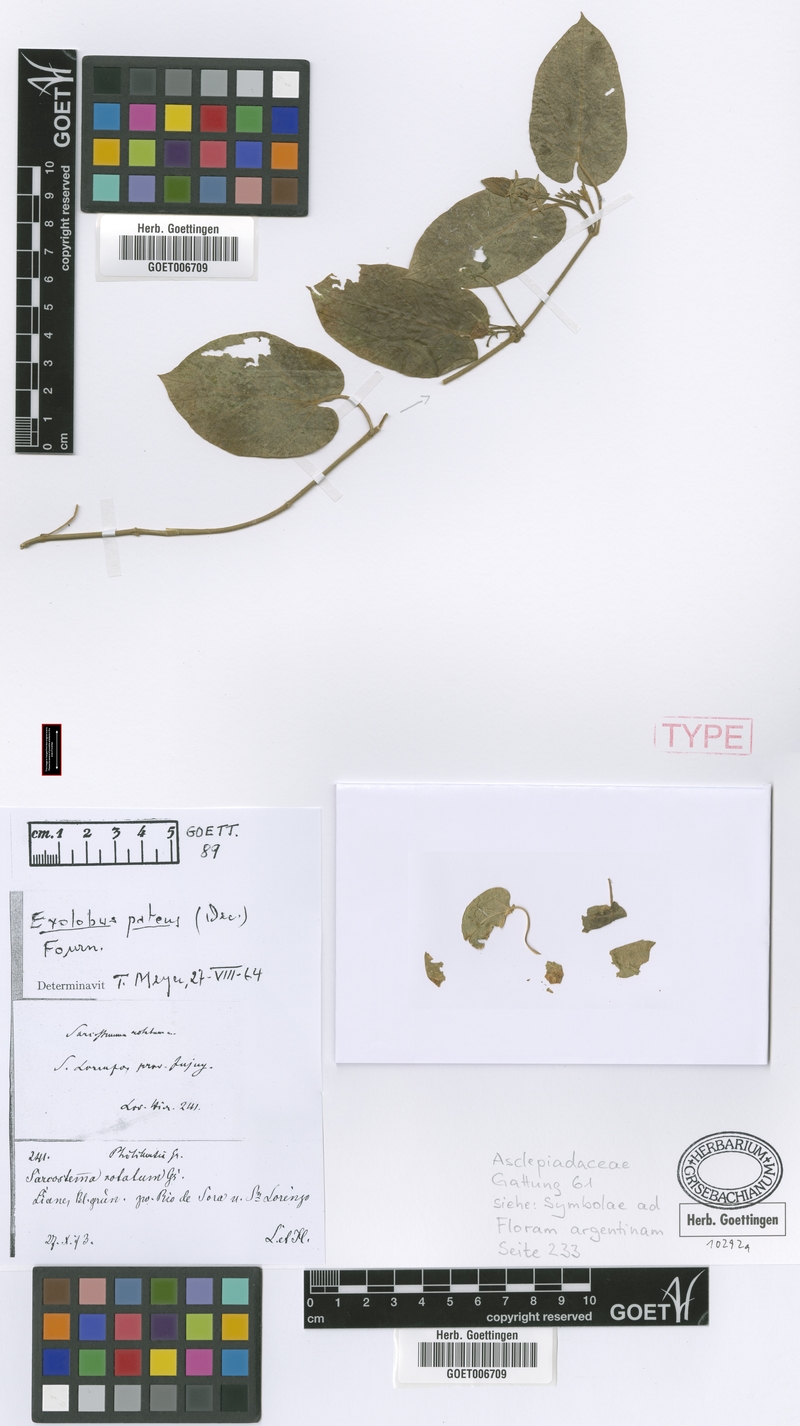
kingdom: Plantae
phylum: Tracheophyta
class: Magnoliopsida
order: Gentianales
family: Apocynaceae
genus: Gonolobus
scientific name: Gonolobus rostratus
